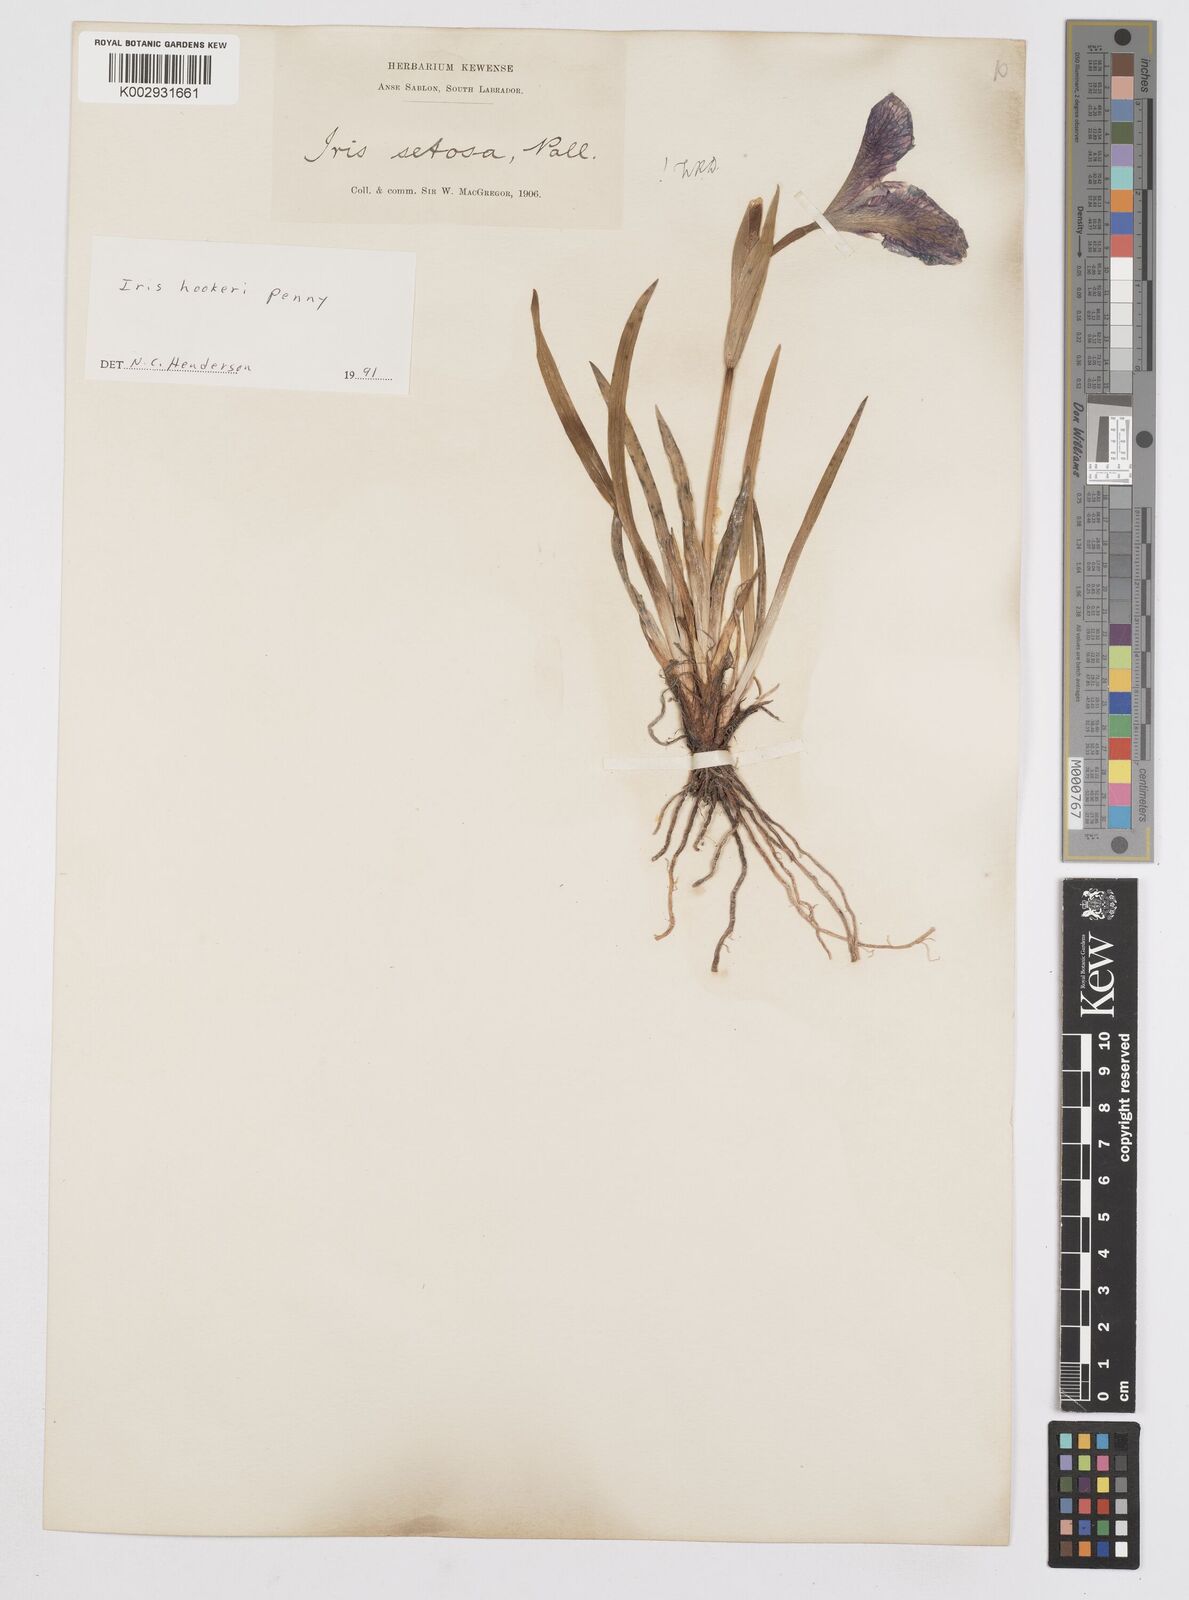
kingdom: Plantae
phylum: Tracheophyta
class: Liliopsida
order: Asparagales
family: Iridaceae
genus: Iris
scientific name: Iris setosa
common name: Arctic blue flag
